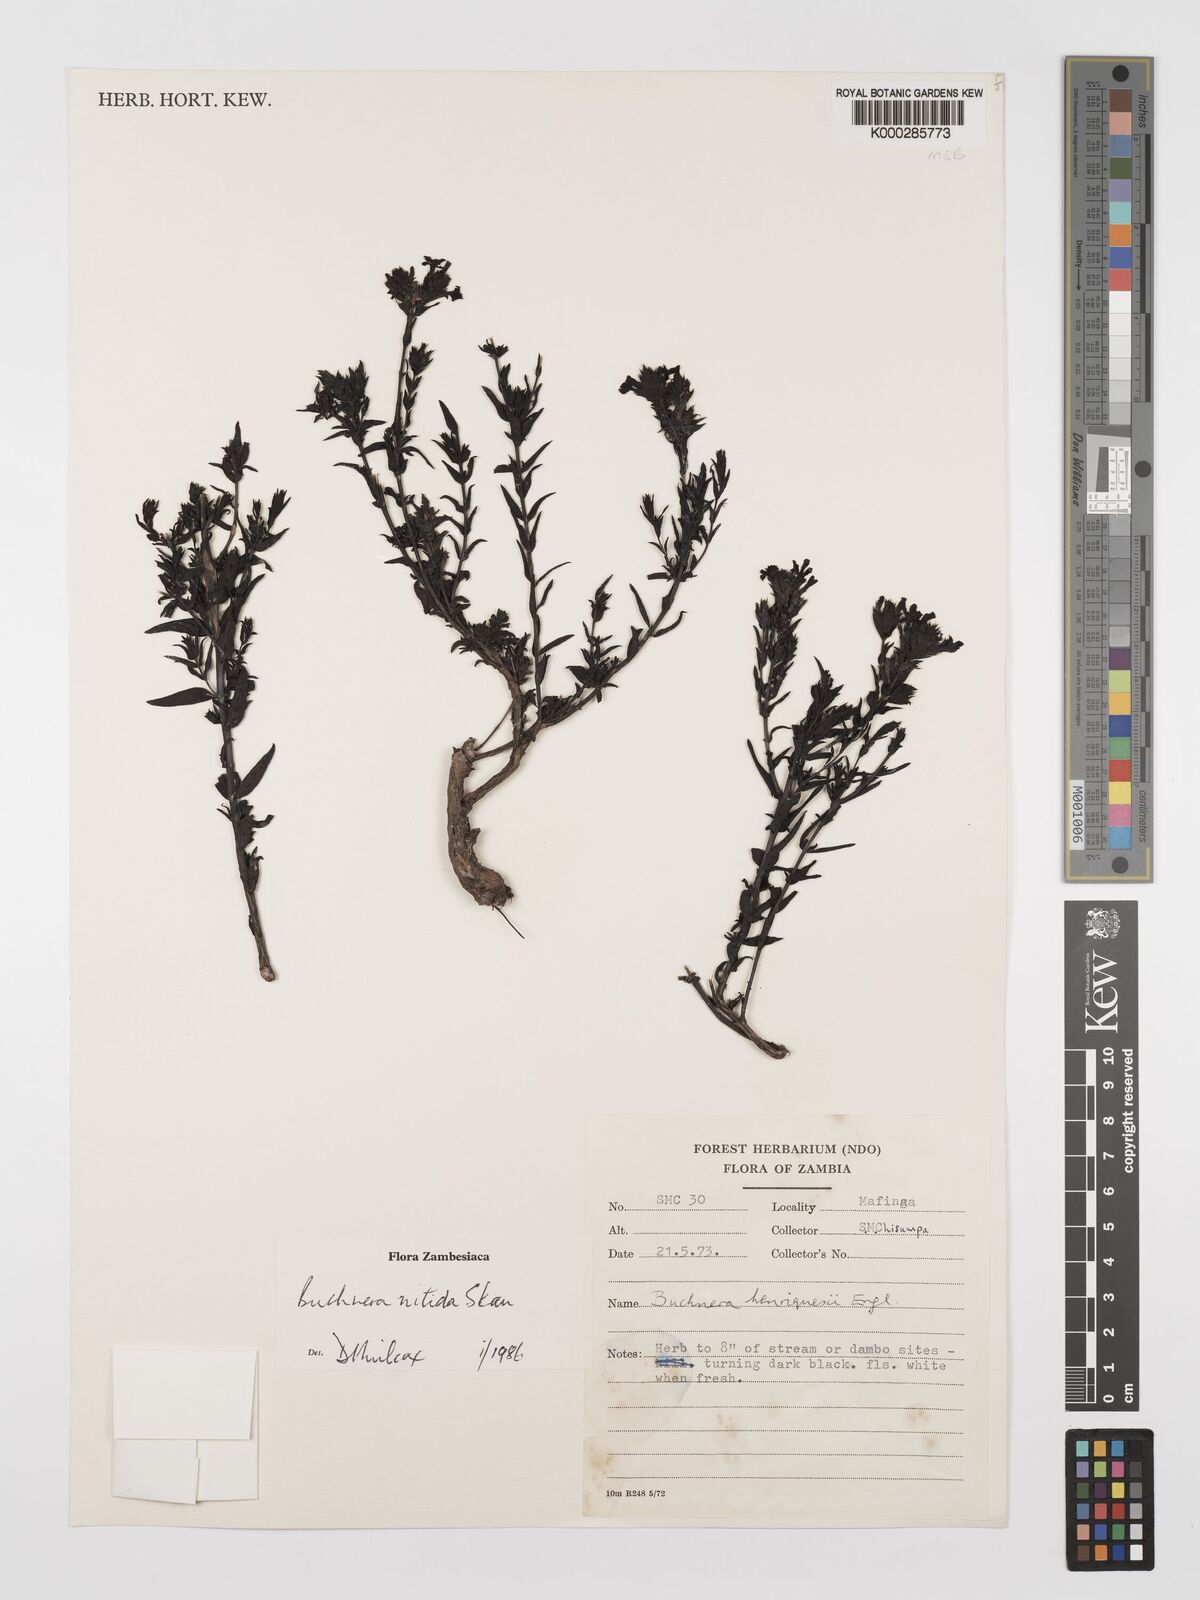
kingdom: Plantae
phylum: Tracheophyta
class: Magnoliopsida
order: Lamiales
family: Orobanchaceae
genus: Buchnera
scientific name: Buchnera nitida
